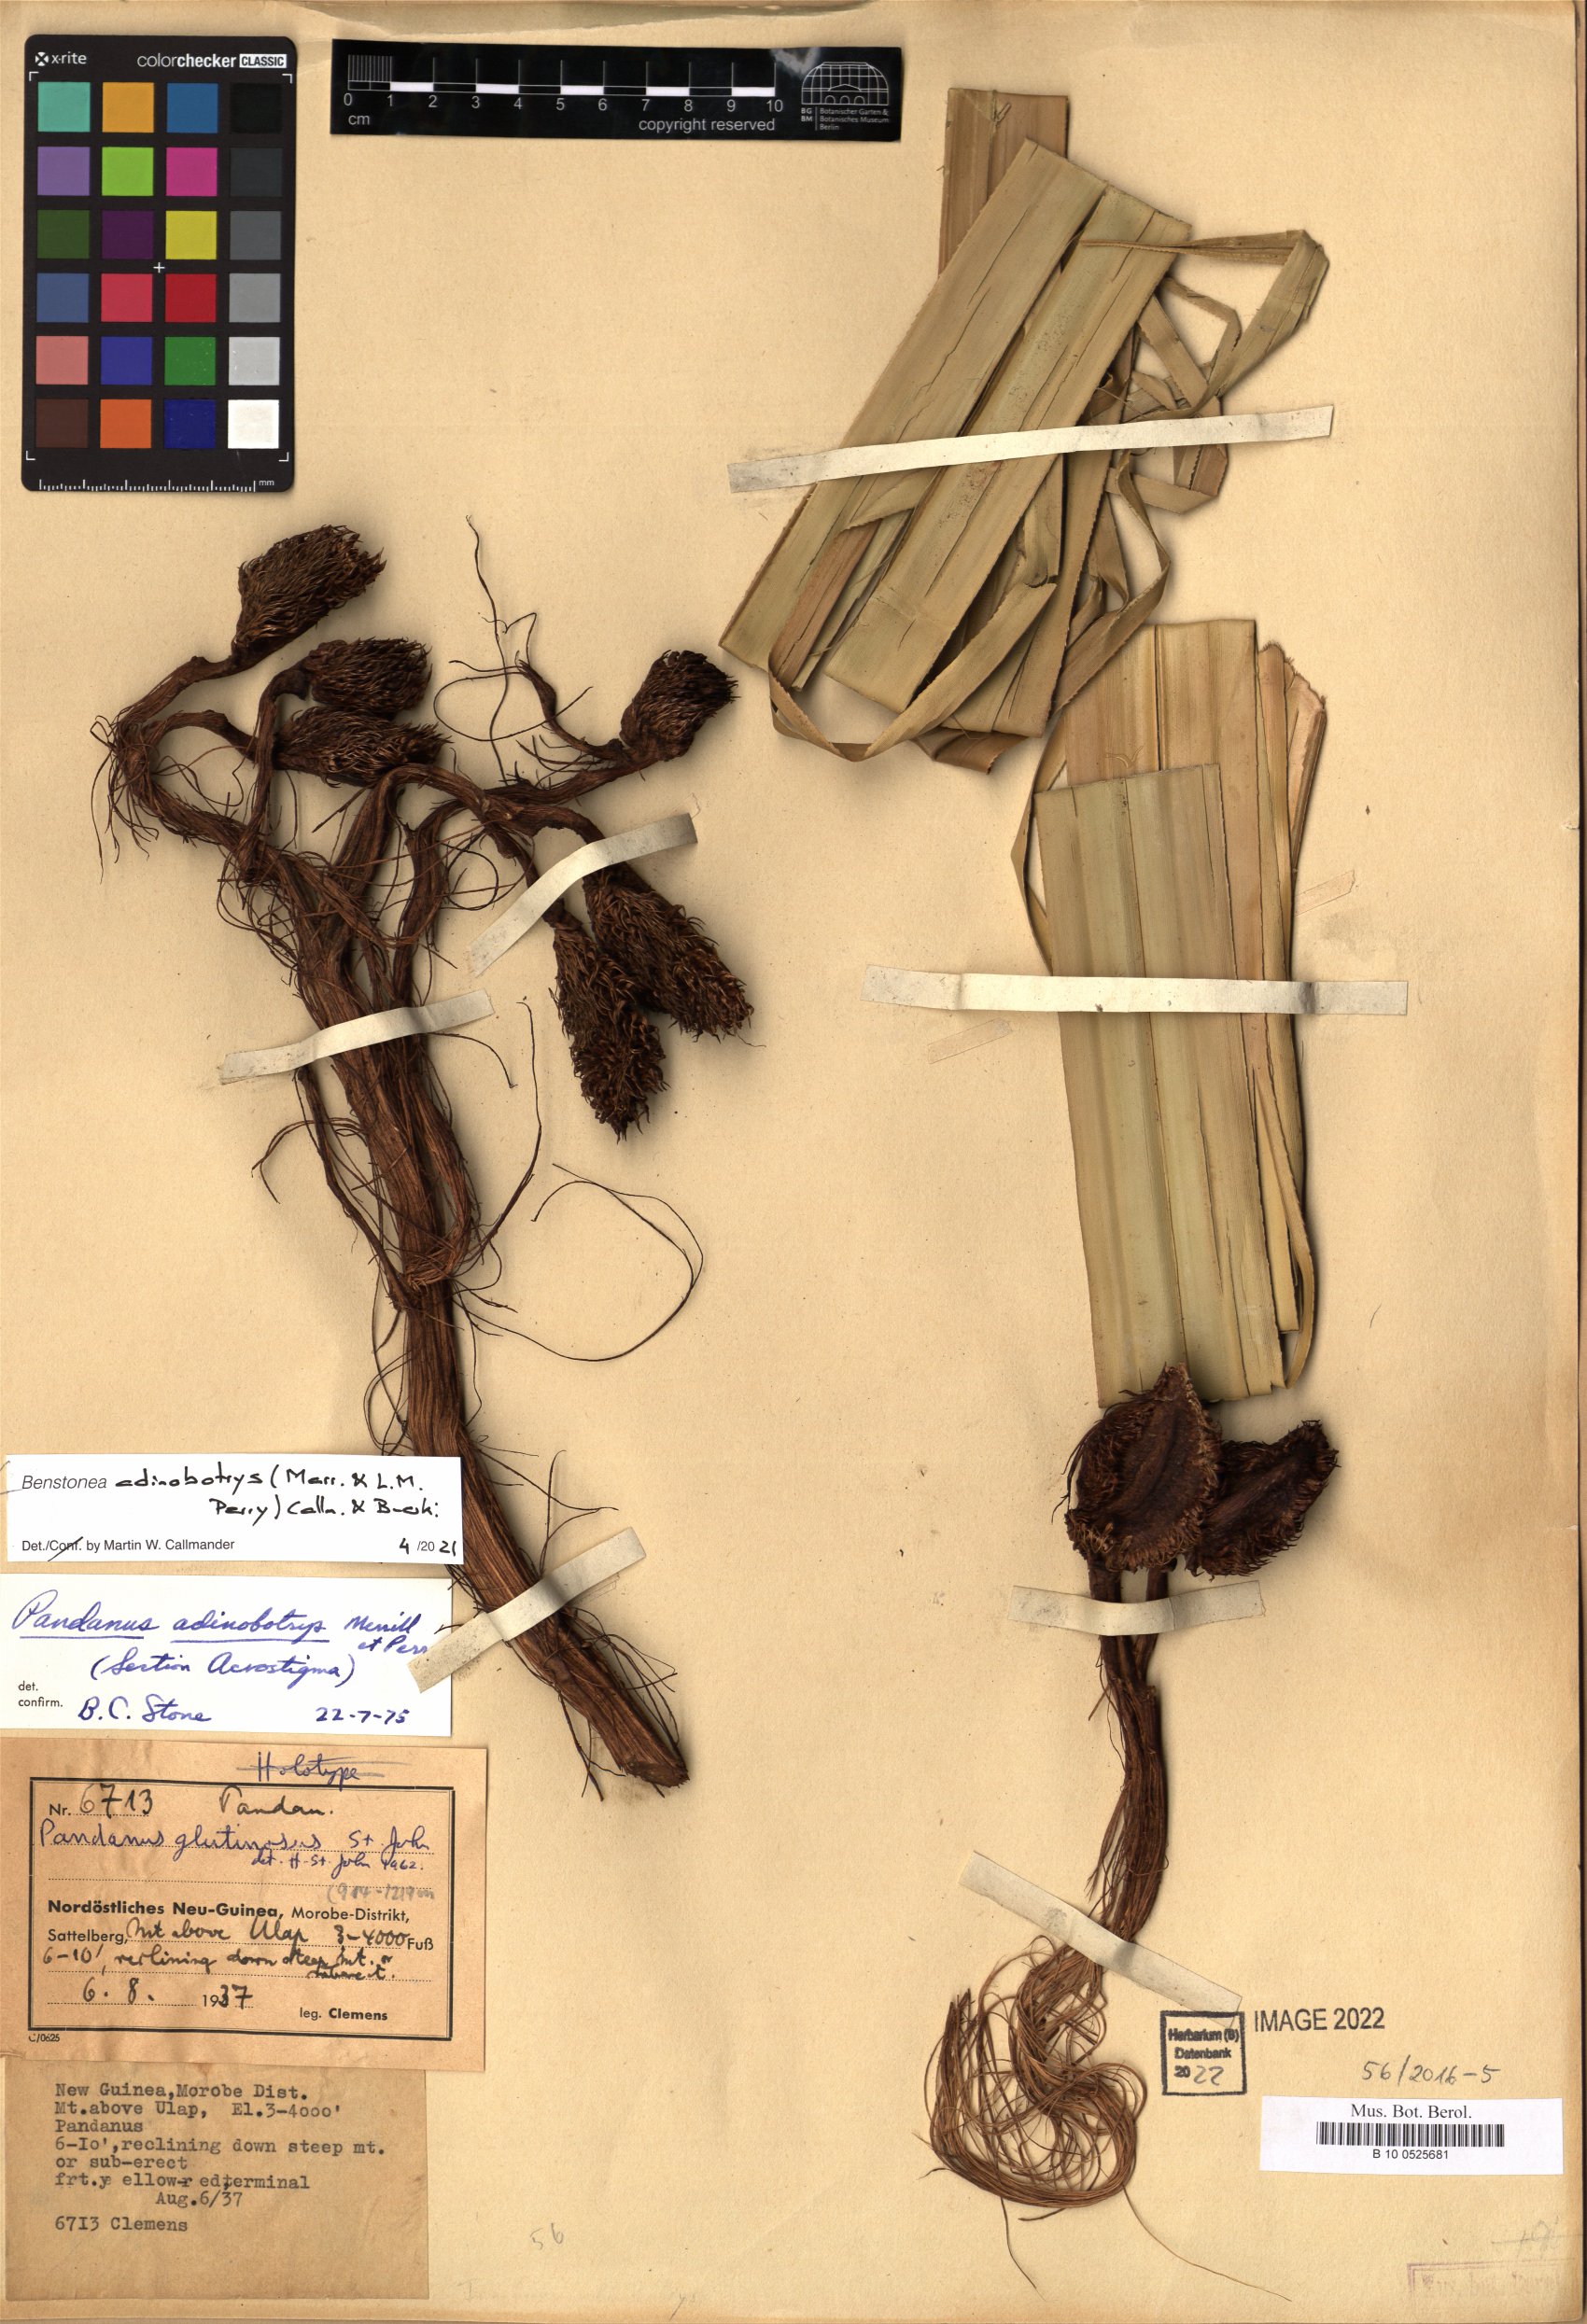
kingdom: Plantae
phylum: Tracheophyta
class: Liliopsida
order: Pandanales
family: Pandanaceae
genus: Benstonea
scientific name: Benstonea adinobotrys
